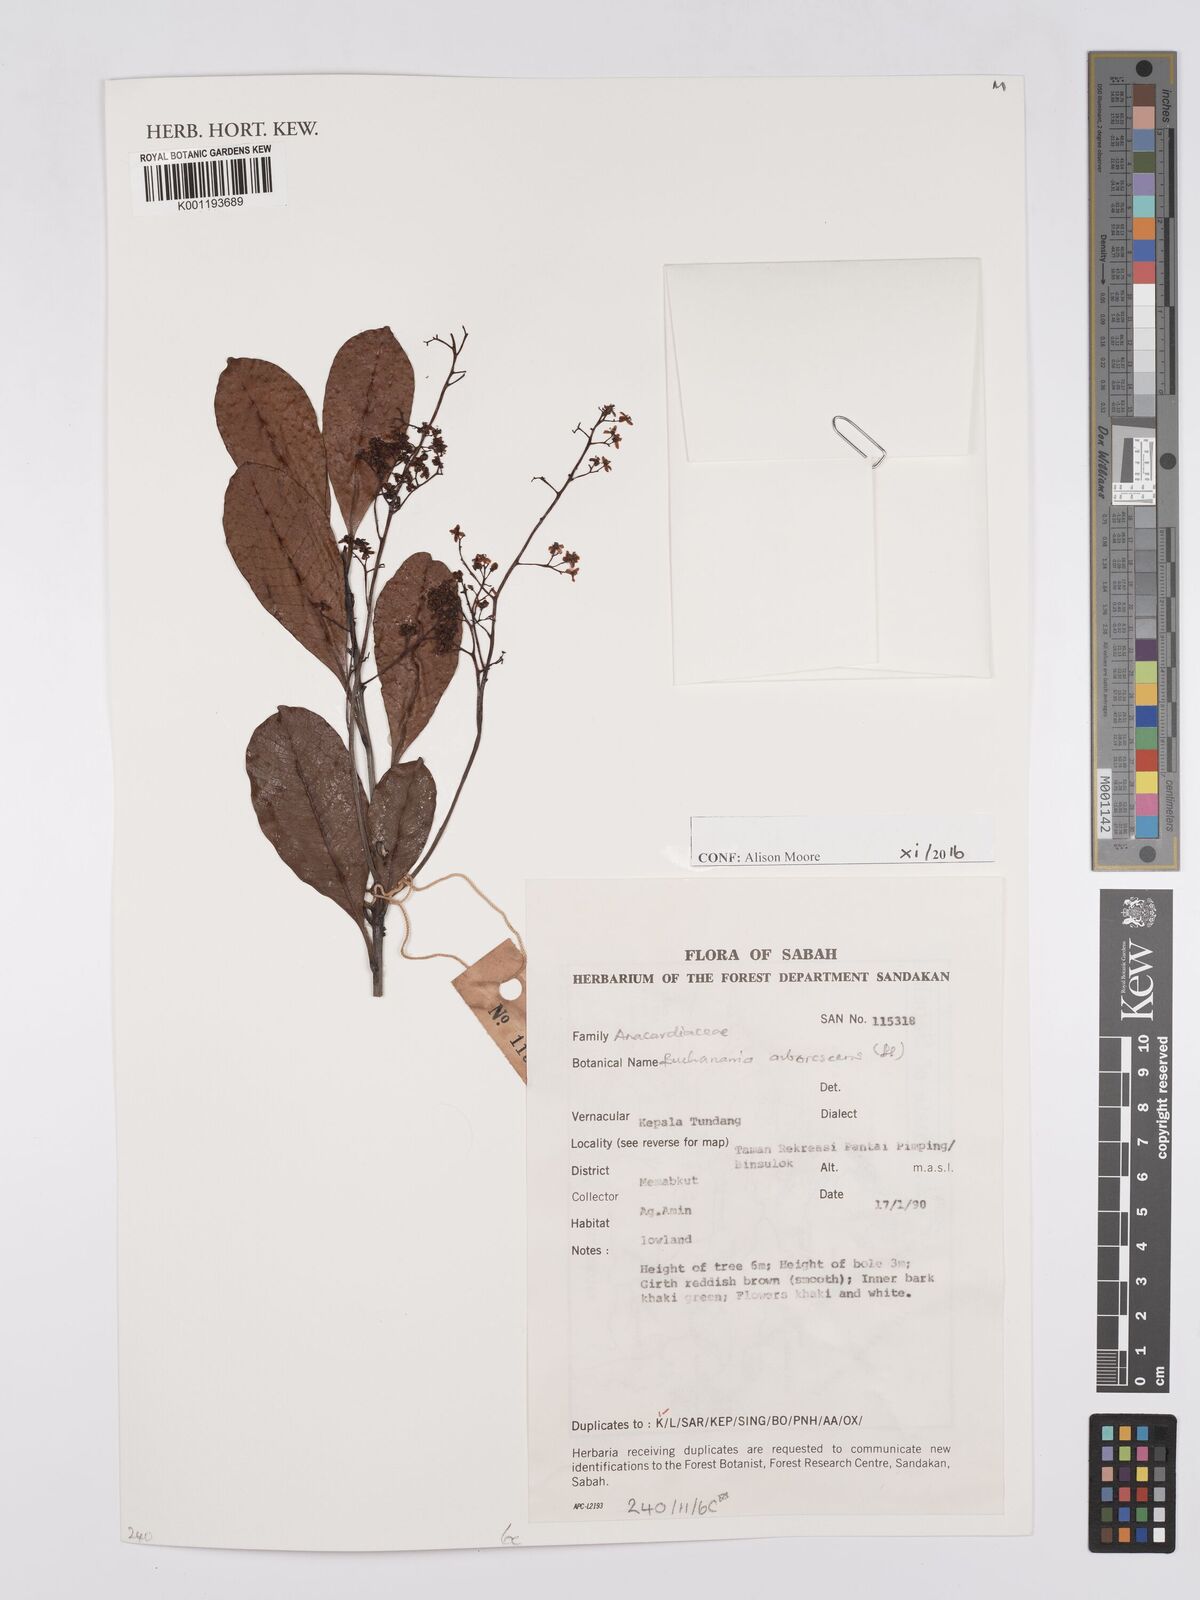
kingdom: Plantae
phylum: Tracheophyta
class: Magnoliopsida
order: Sapindales
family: Anacardiaceae
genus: Buchanania
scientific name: Buchanania arborescens
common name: Sparrow’s mango
